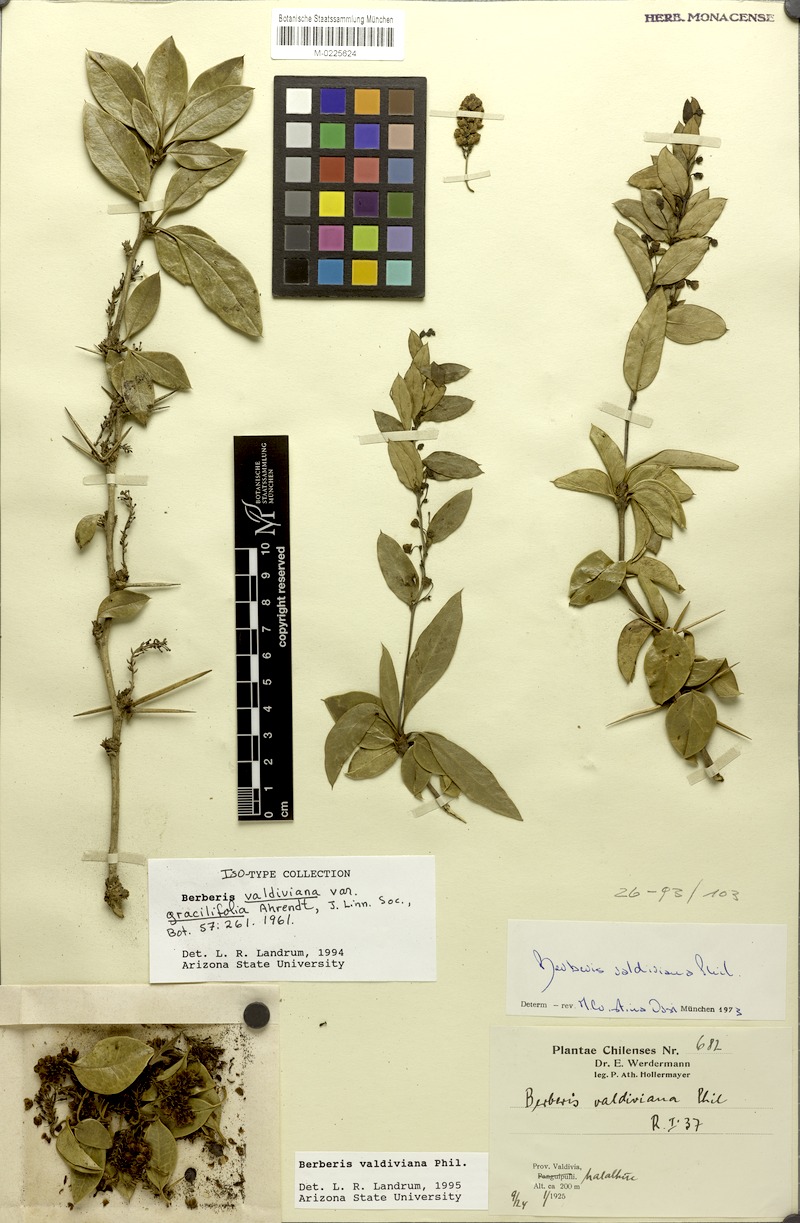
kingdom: Plantae
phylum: Tracheophyta
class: Magnoliopsida
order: Ranunculales
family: Berberidaceae
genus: Berberis
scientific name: Berberis valdiviana
